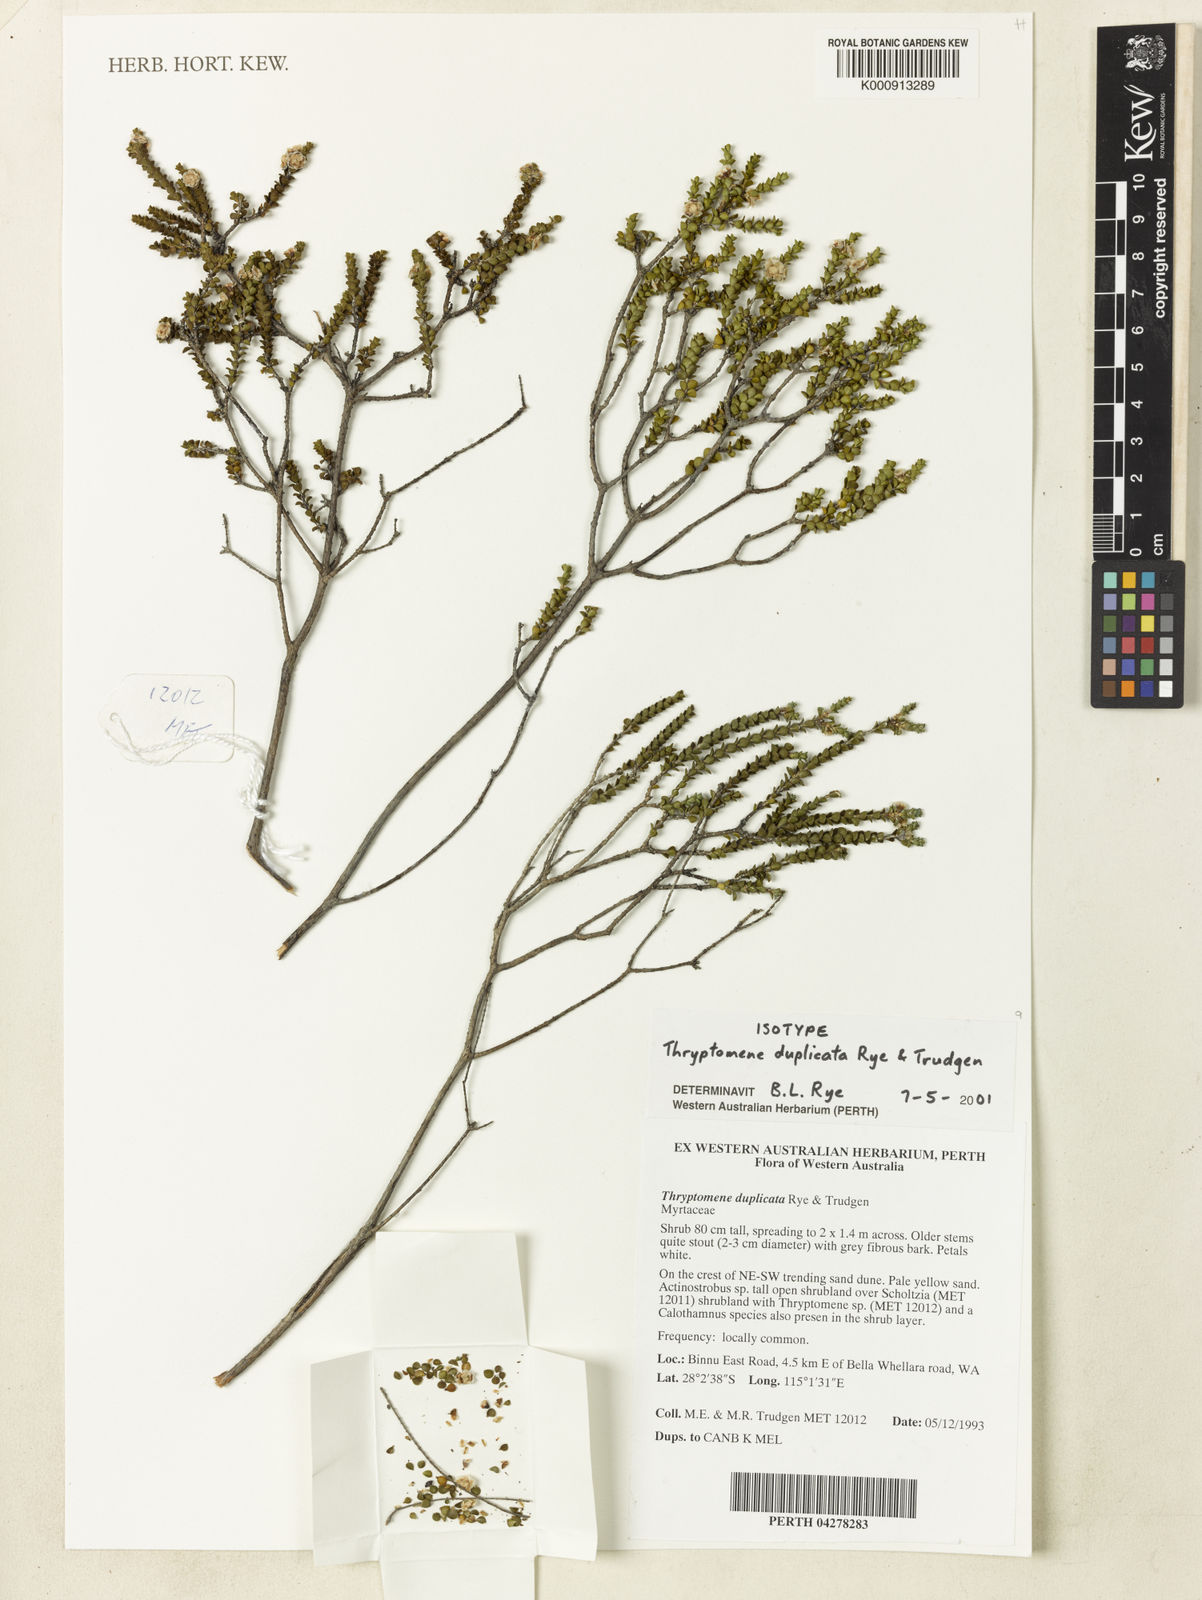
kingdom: Plantae
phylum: Tracheophyta
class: Magnoliopsida
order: Myrtales
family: Myrtaceae
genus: Thryptomene
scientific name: Thryptomene duplicata
